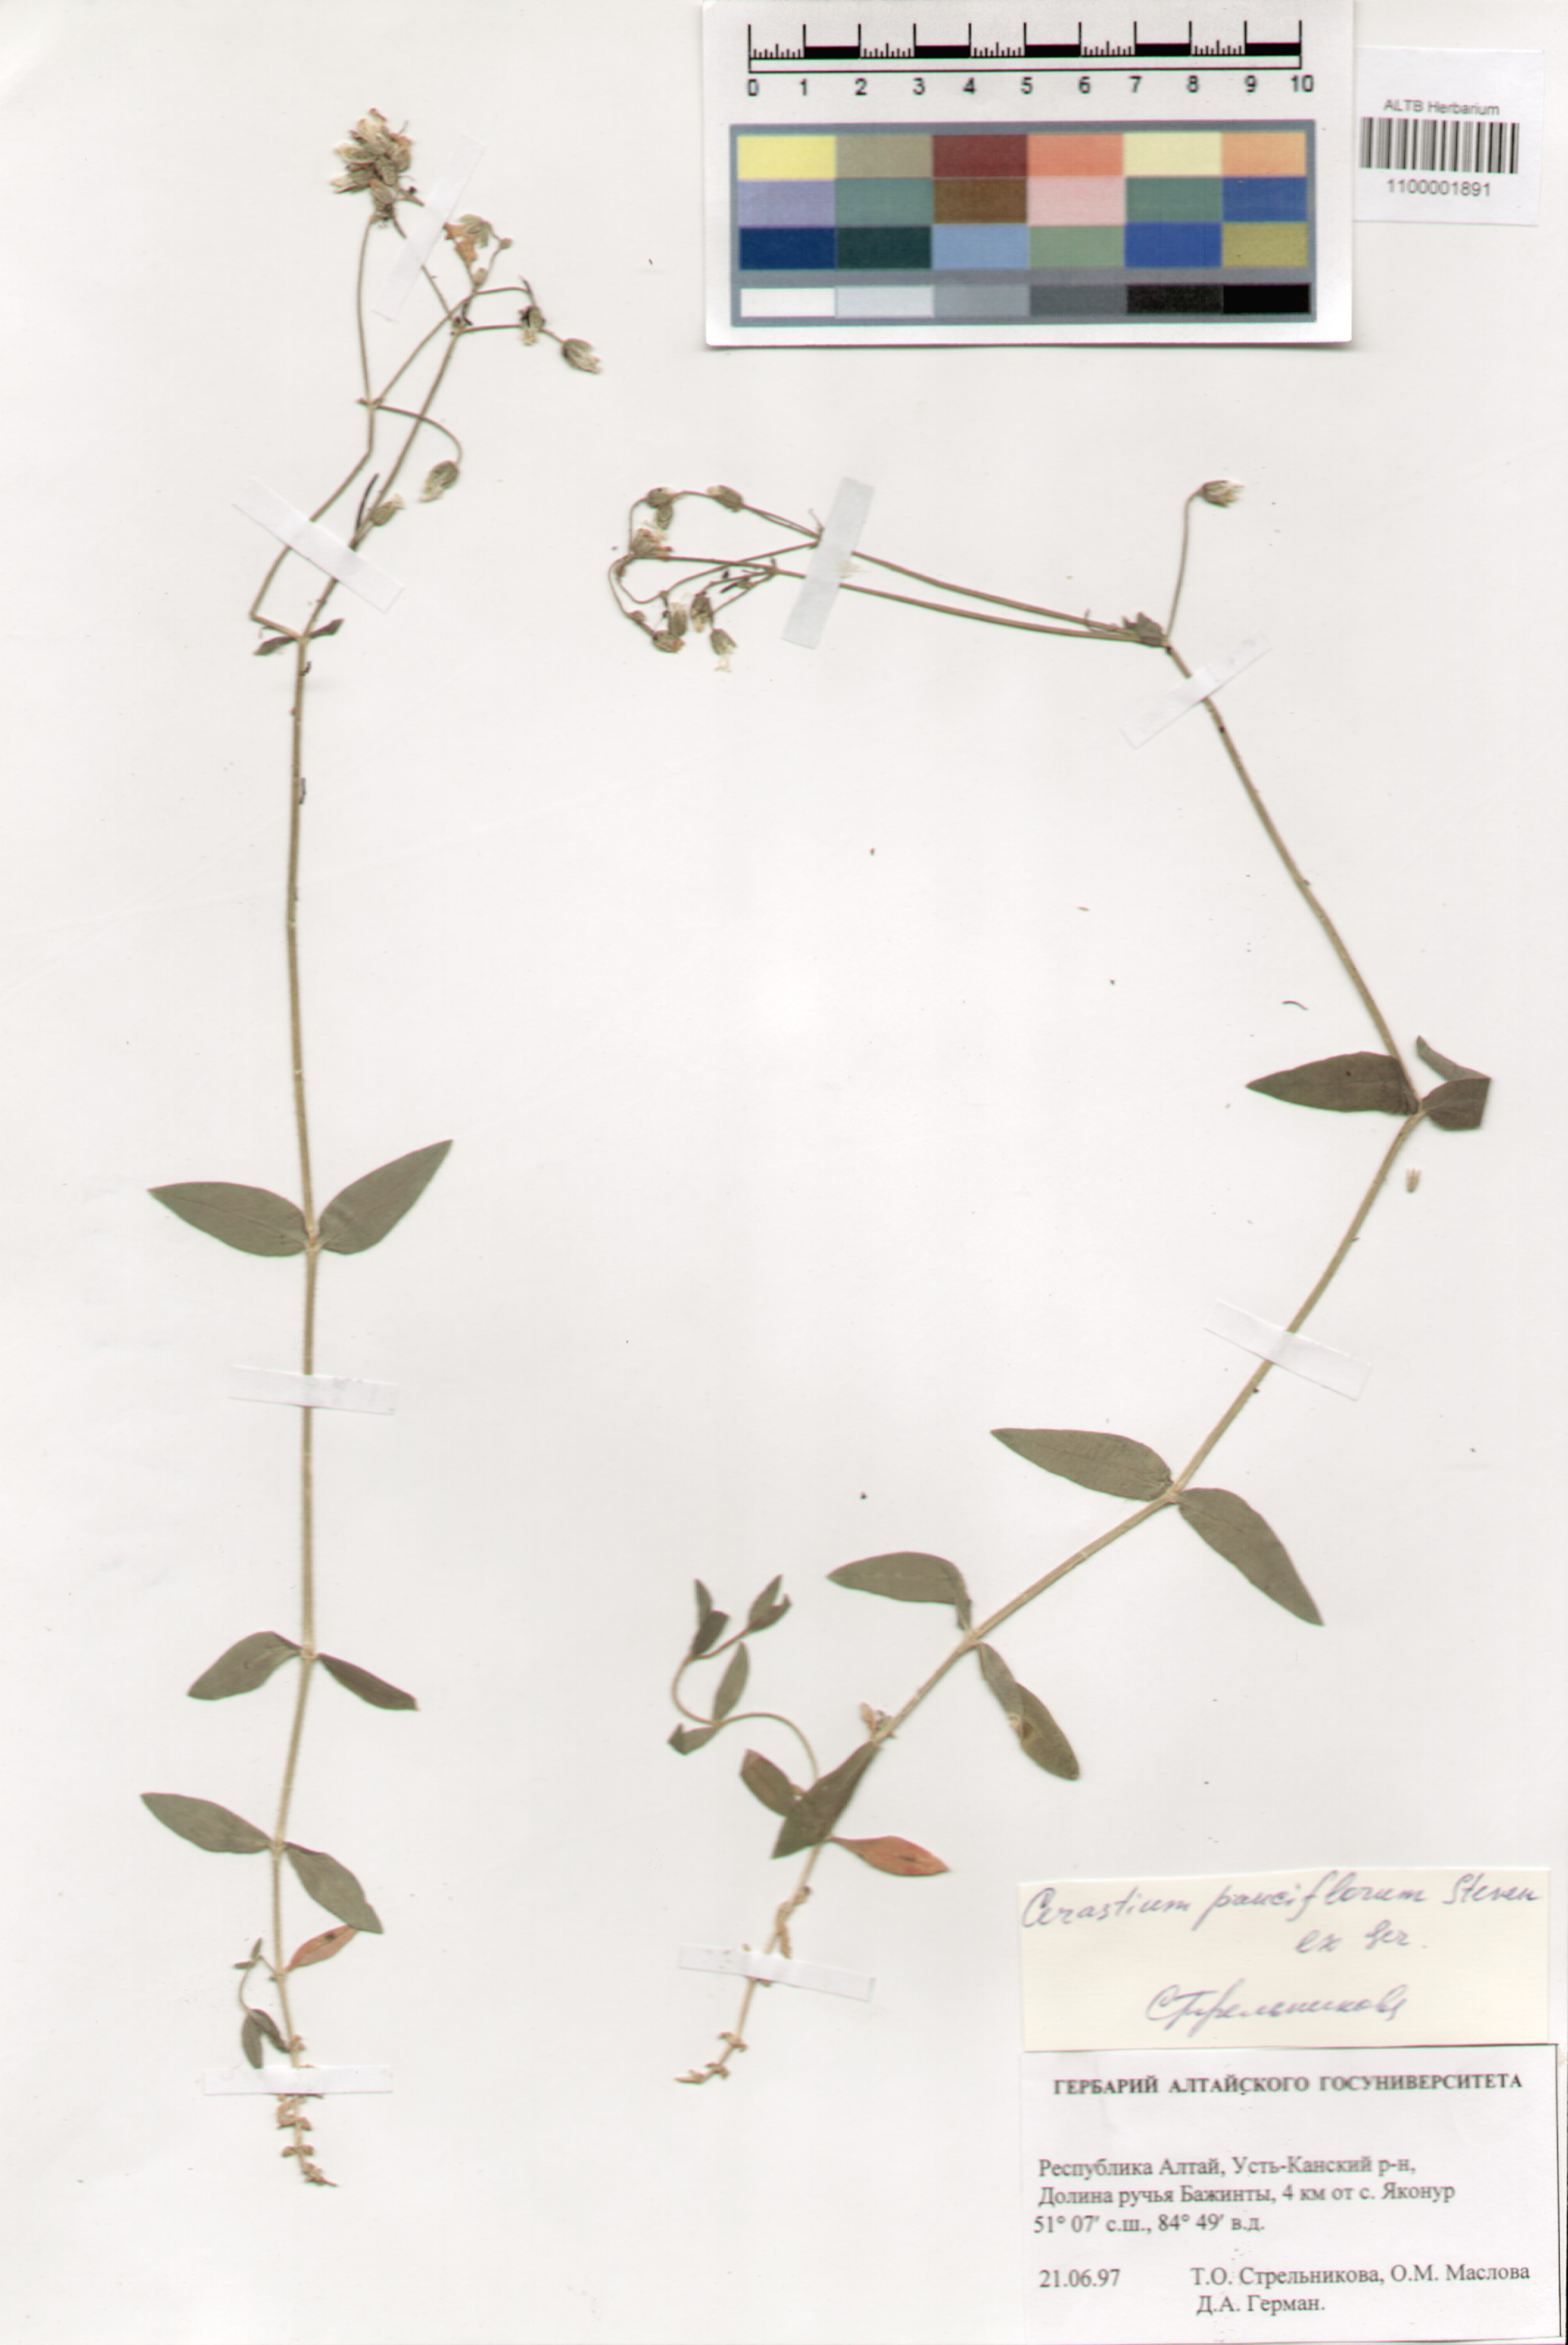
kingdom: Plantae
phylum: Tracheophyta
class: Magnoliopsida
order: Caryophyllales
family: Caryophyllaceae
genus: Cerastium
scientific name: Cerastium pauciflorum
